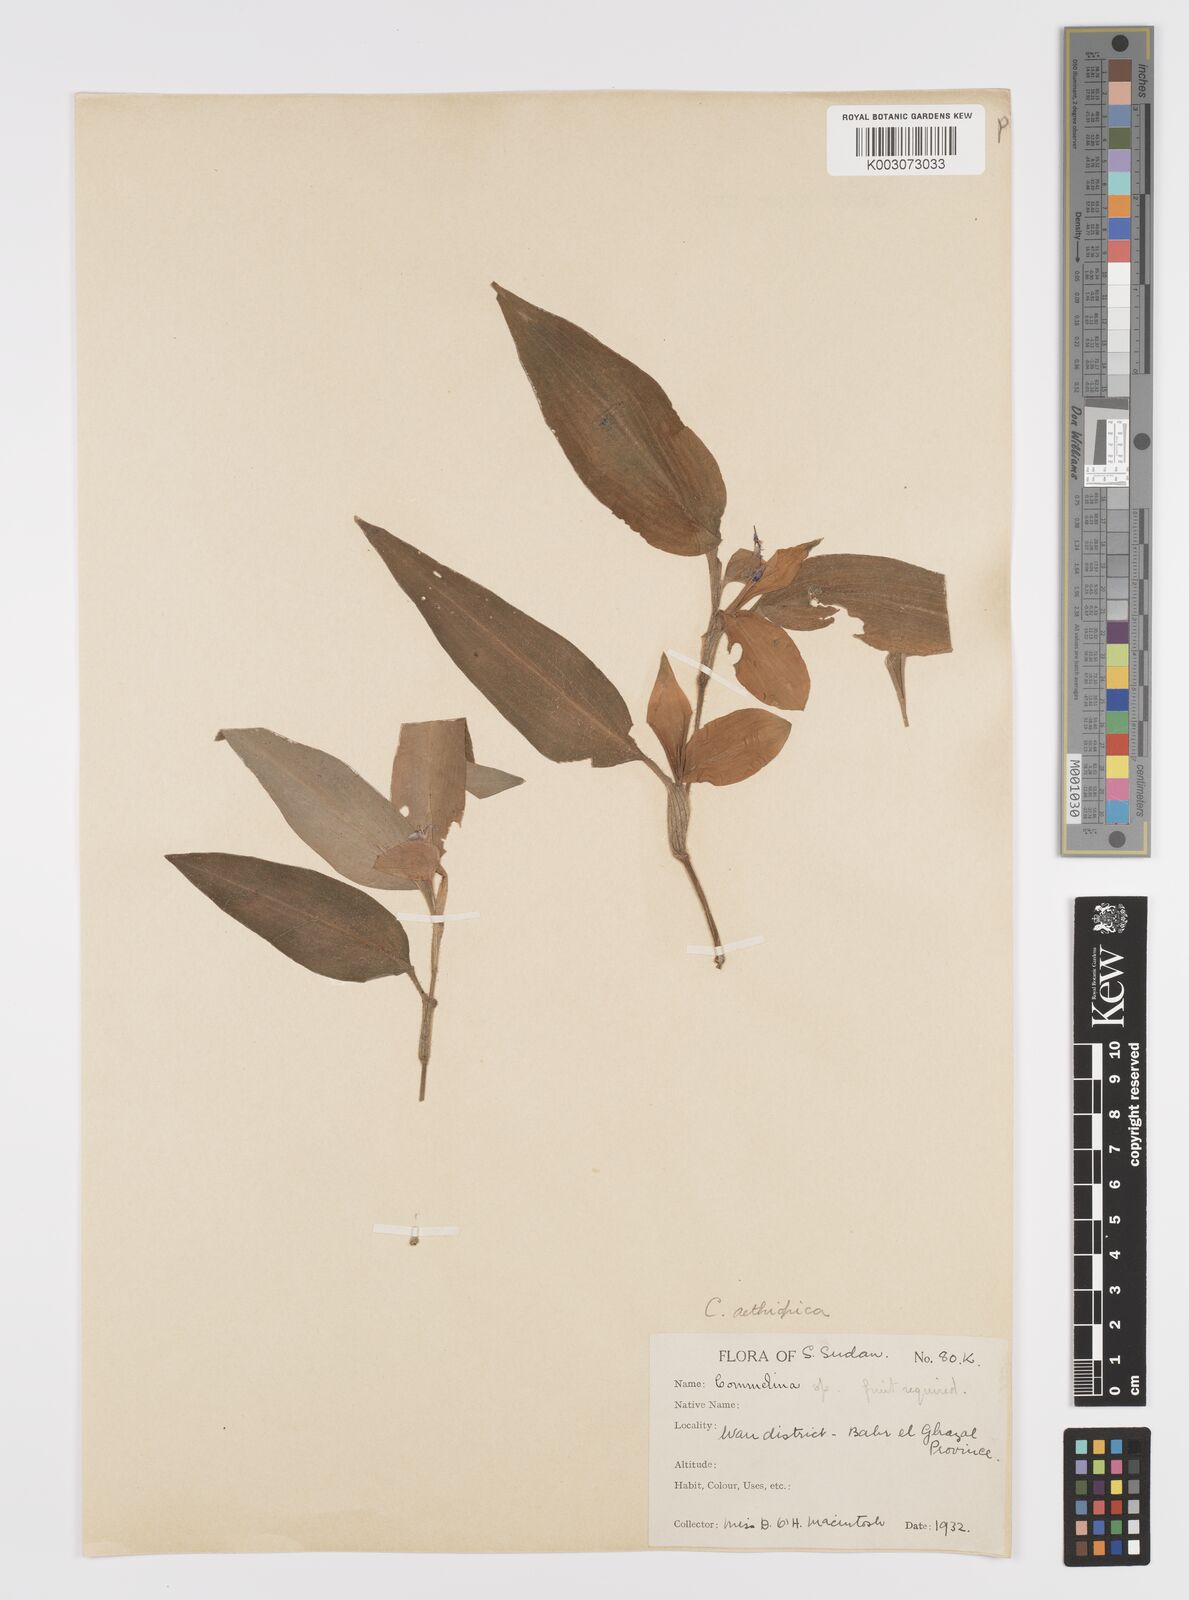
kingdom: Plantae
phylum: Tracheophyta
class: Liliopsida
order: Commelinales
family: Commelinaceae
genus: Commelina
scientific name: Commelina bracteosa
